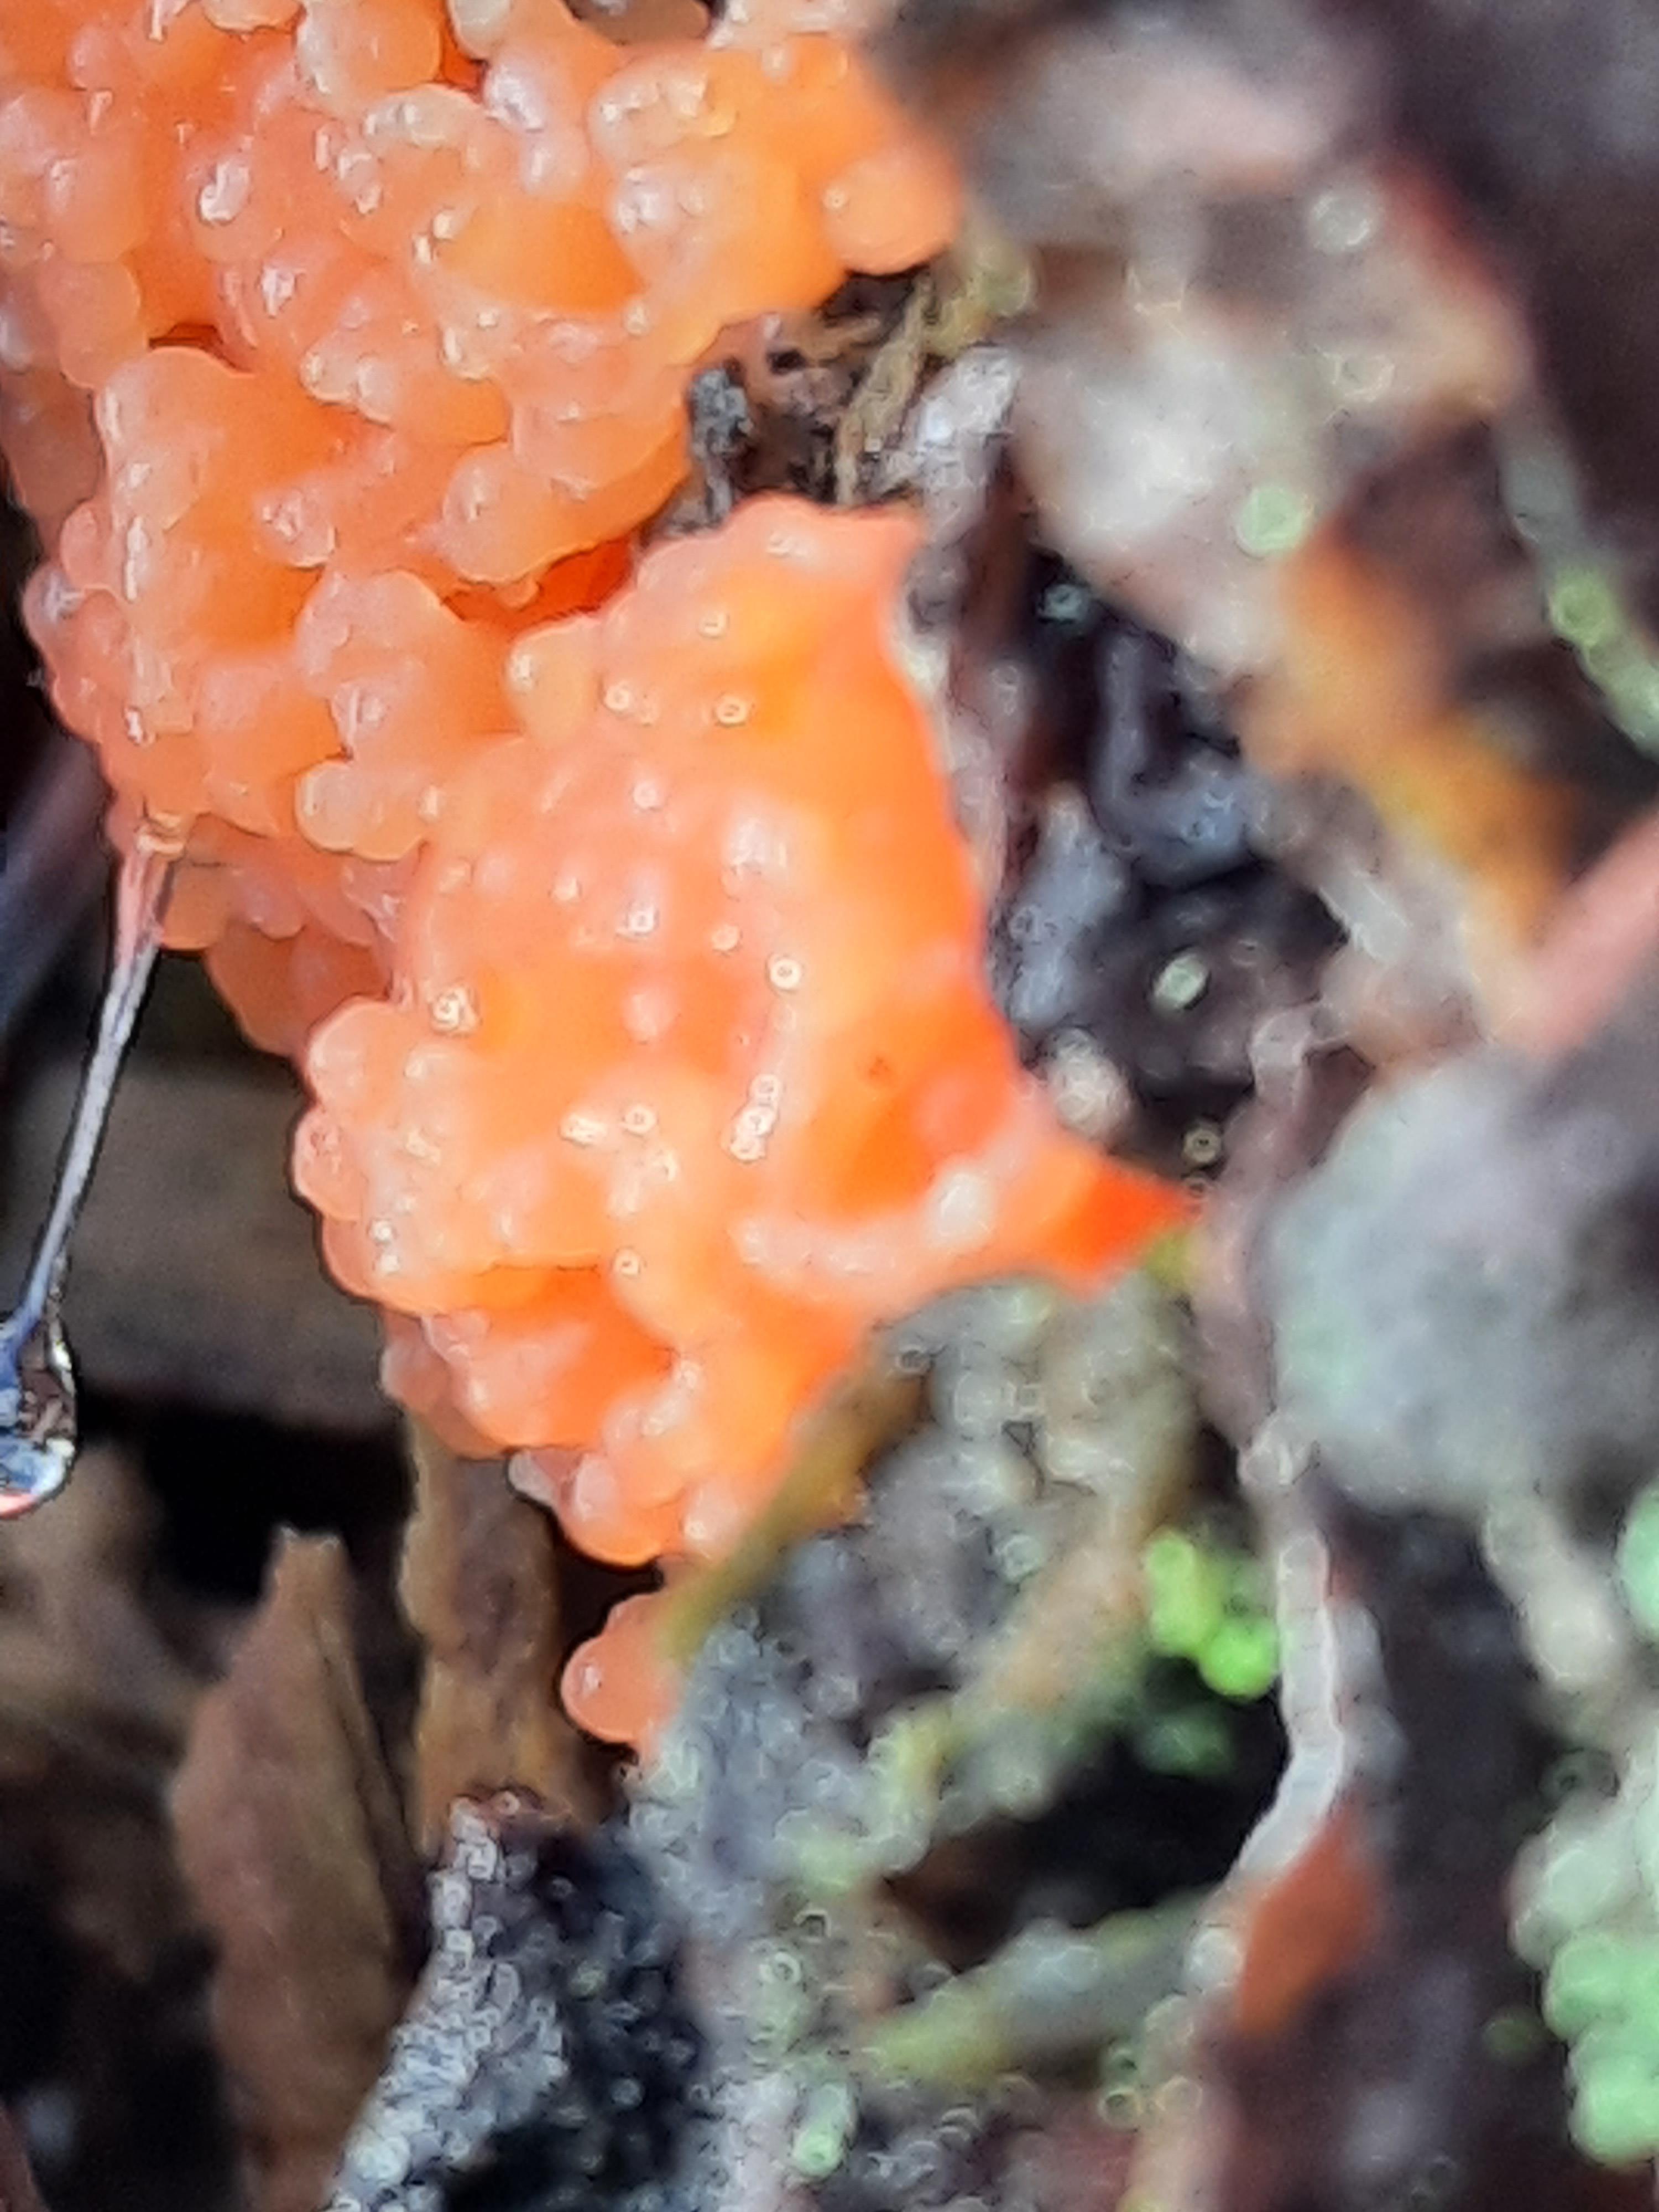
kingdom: Protozoa
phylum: Mycetozoa
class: Myxomycetes
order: Cribrariales
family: Tubiferaceae
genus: Tubifera
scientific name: Tubifera ferruginosa
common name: kanel-støvrør
